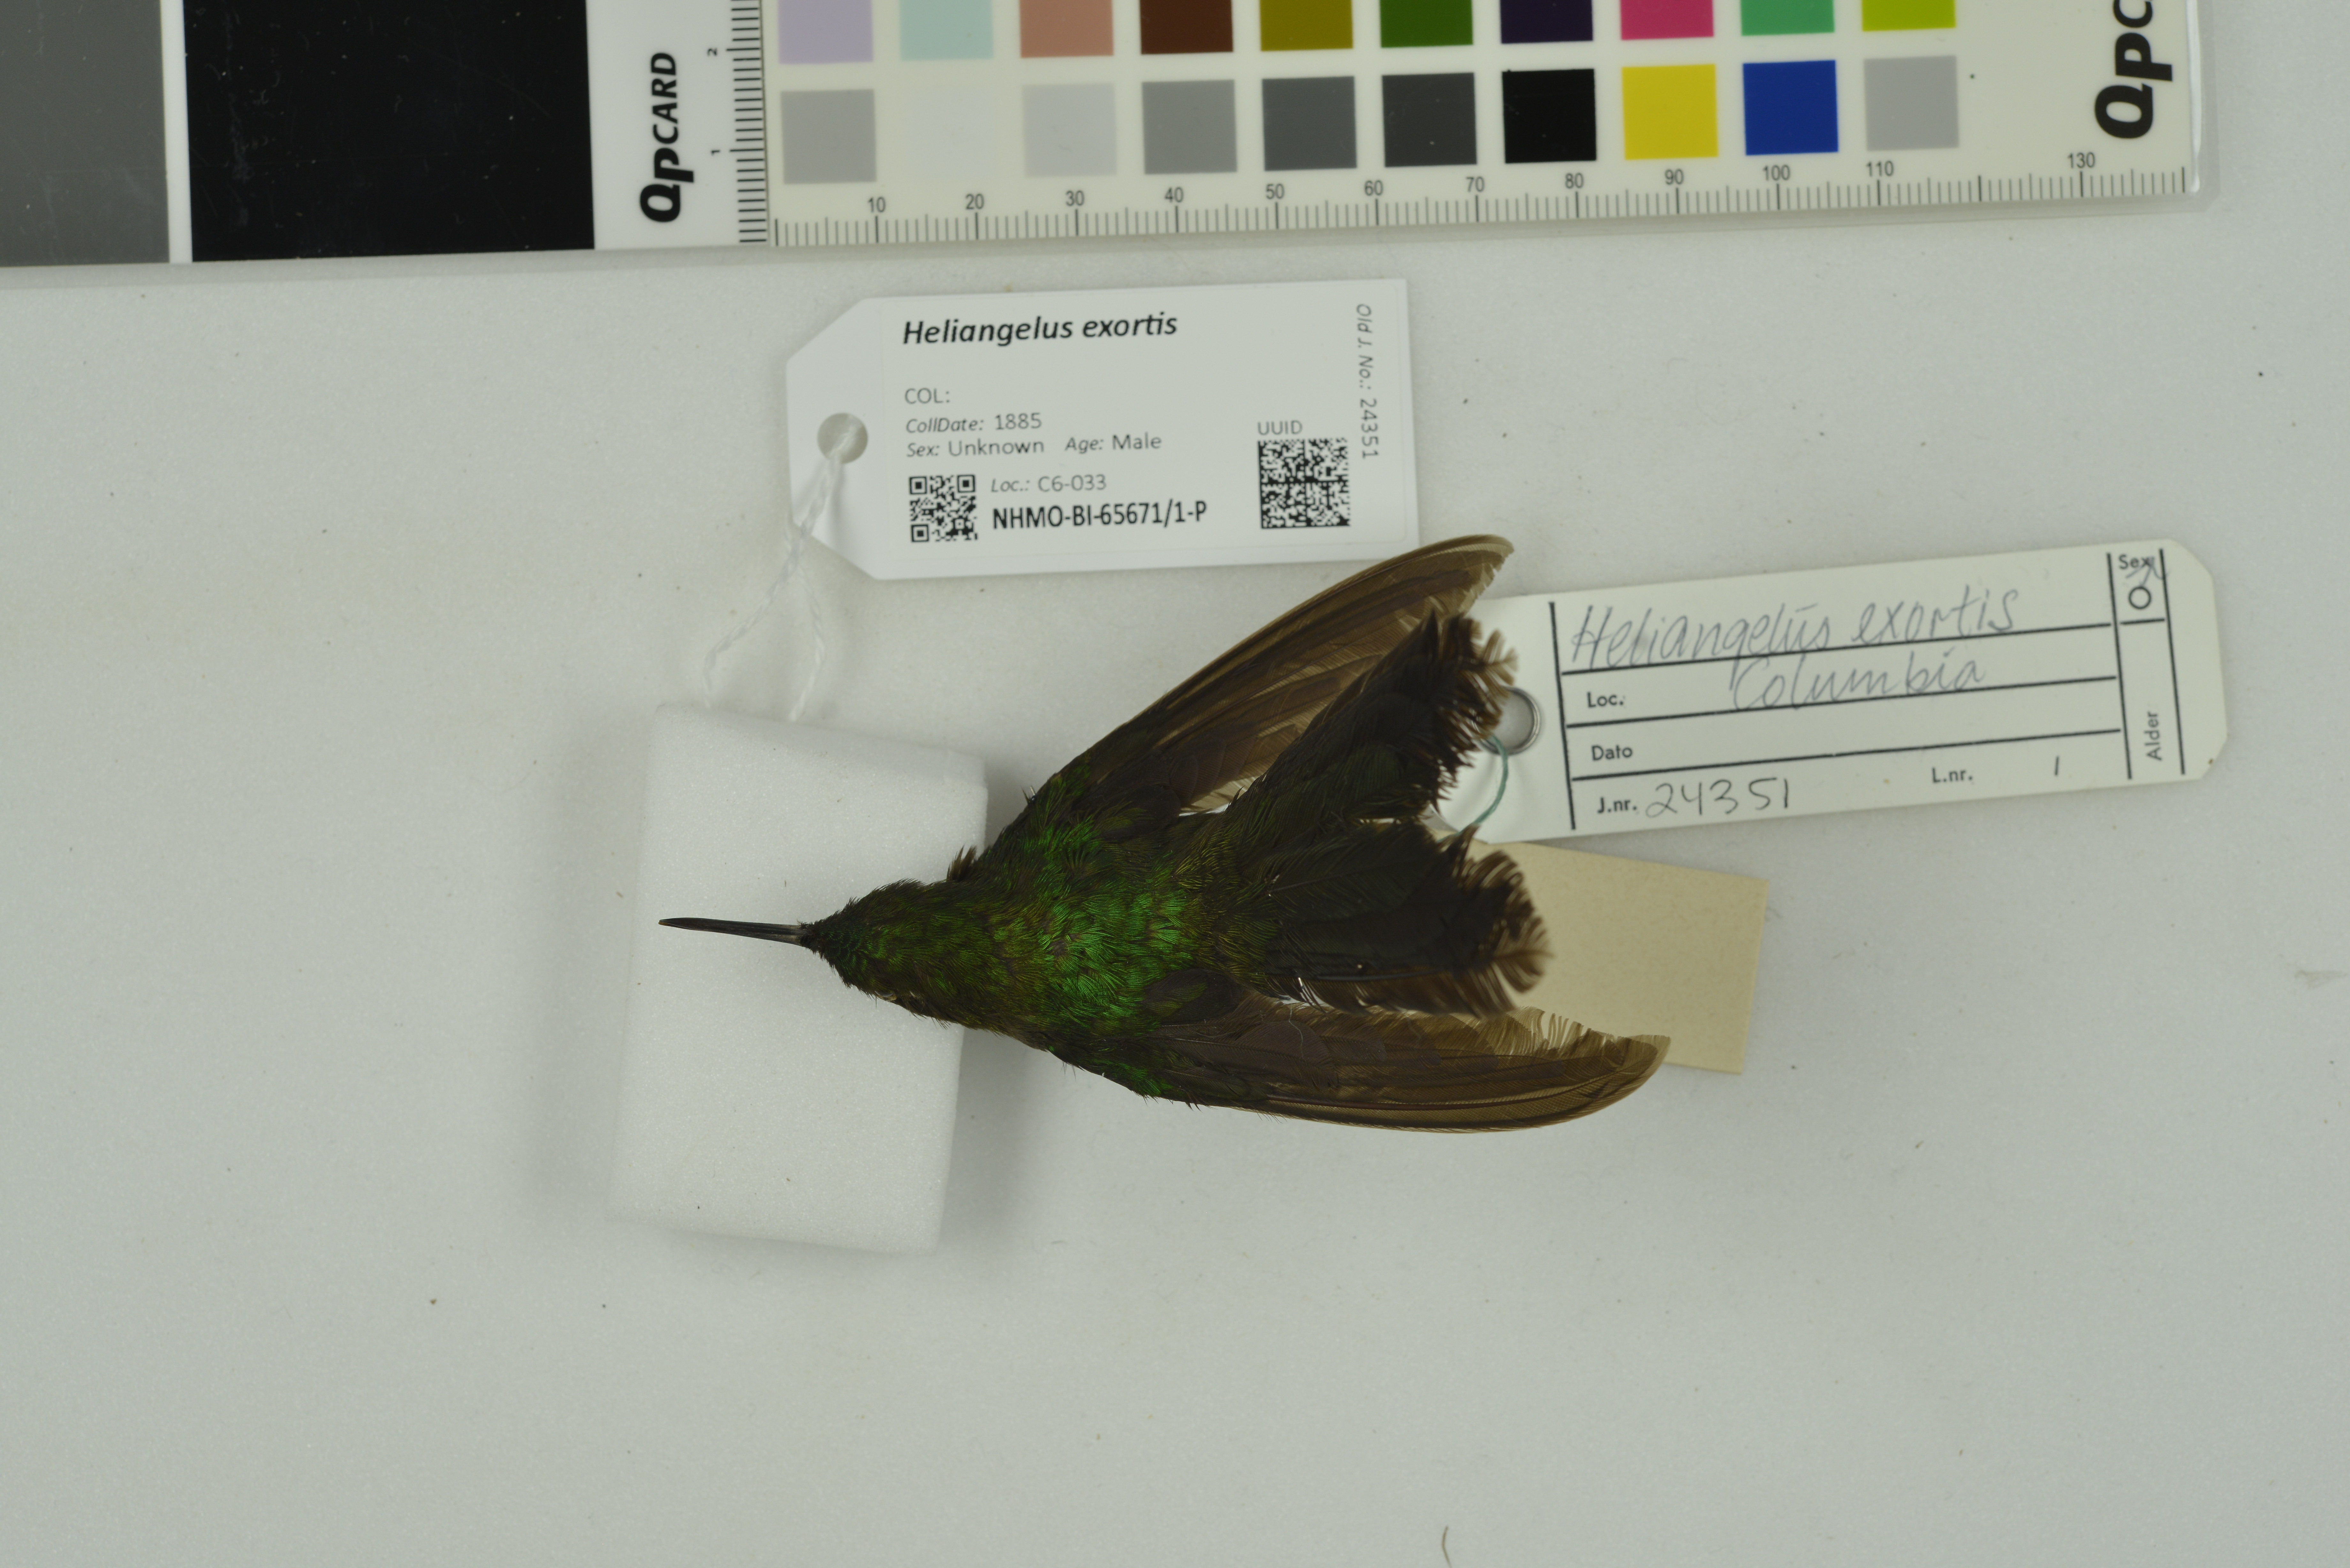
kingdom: Animalia
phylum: Chordata
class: Aves
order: Apodiformes
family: Trochilidae
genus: Heliangelus
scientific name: Heliangelus exortis
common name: Tourmaline sunangel
